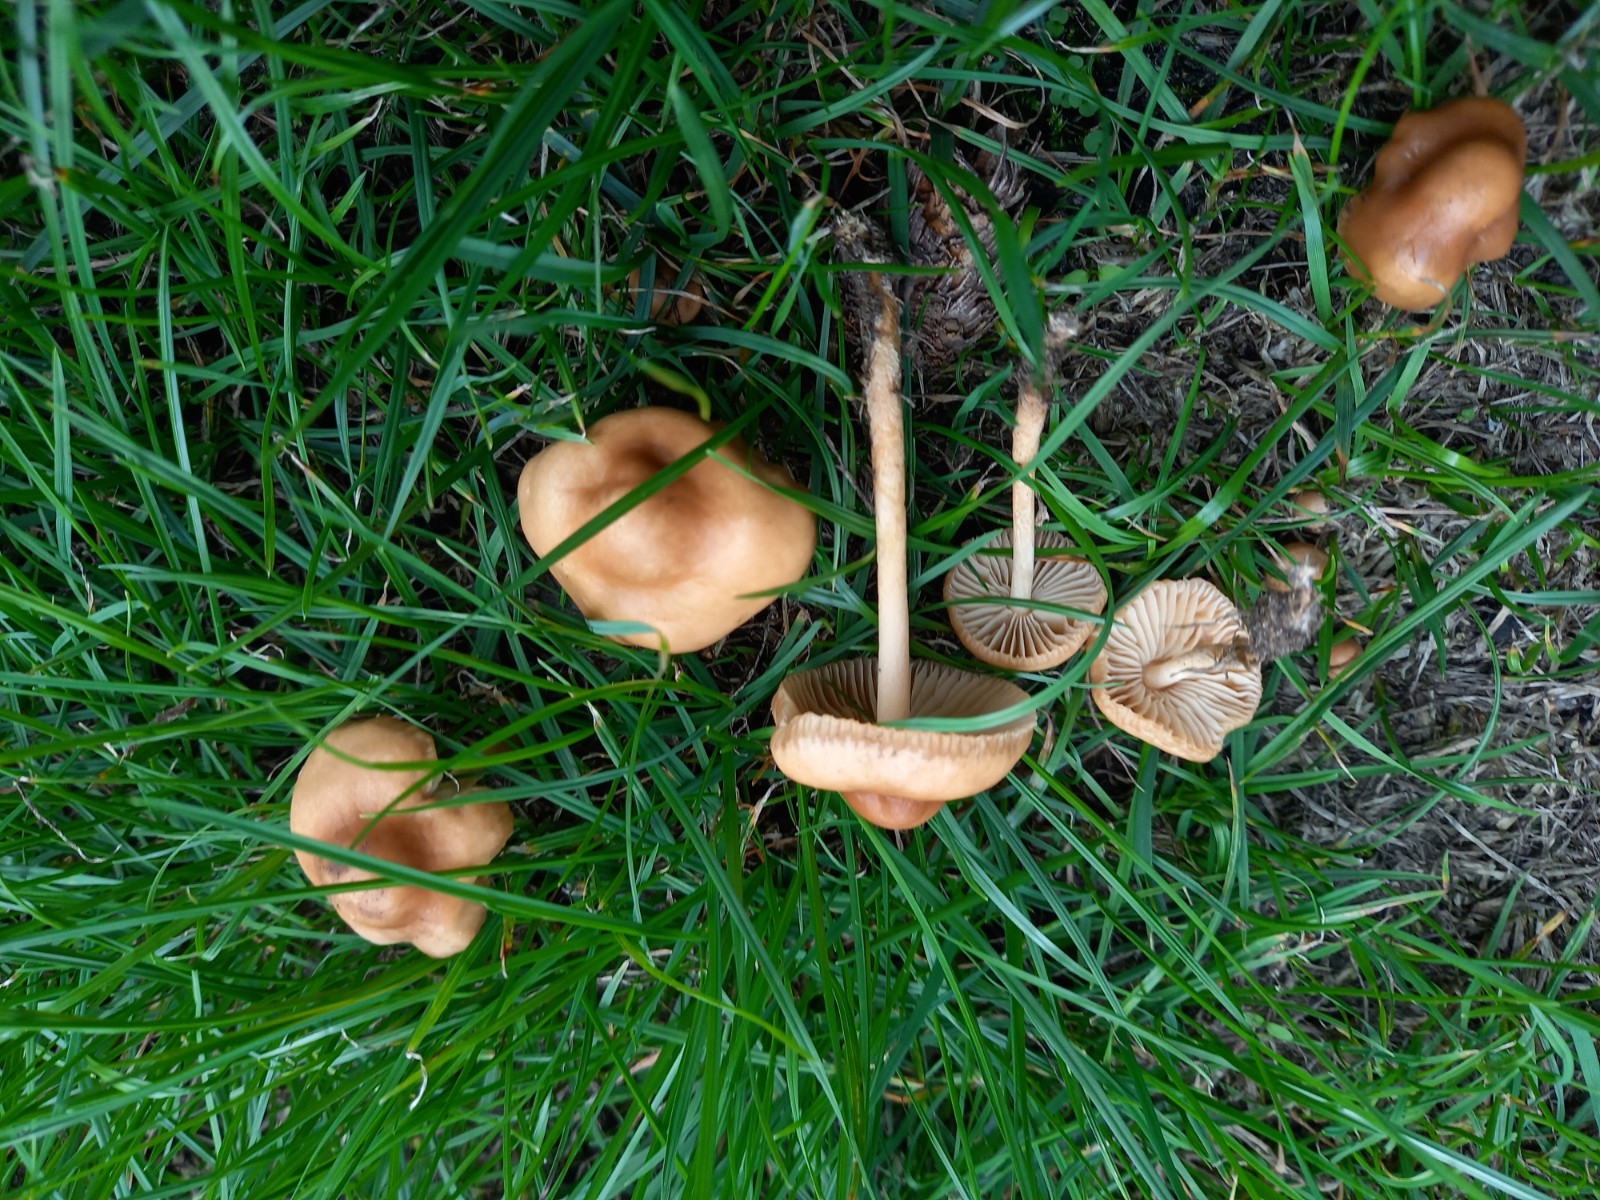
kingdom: Fungi
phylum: Basidiomycota
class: Agaricomycetes
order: Agaricales
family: Marasmiaceae
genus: Marasmius
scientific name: Marasmius oreades
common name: elledans-bruskhat
